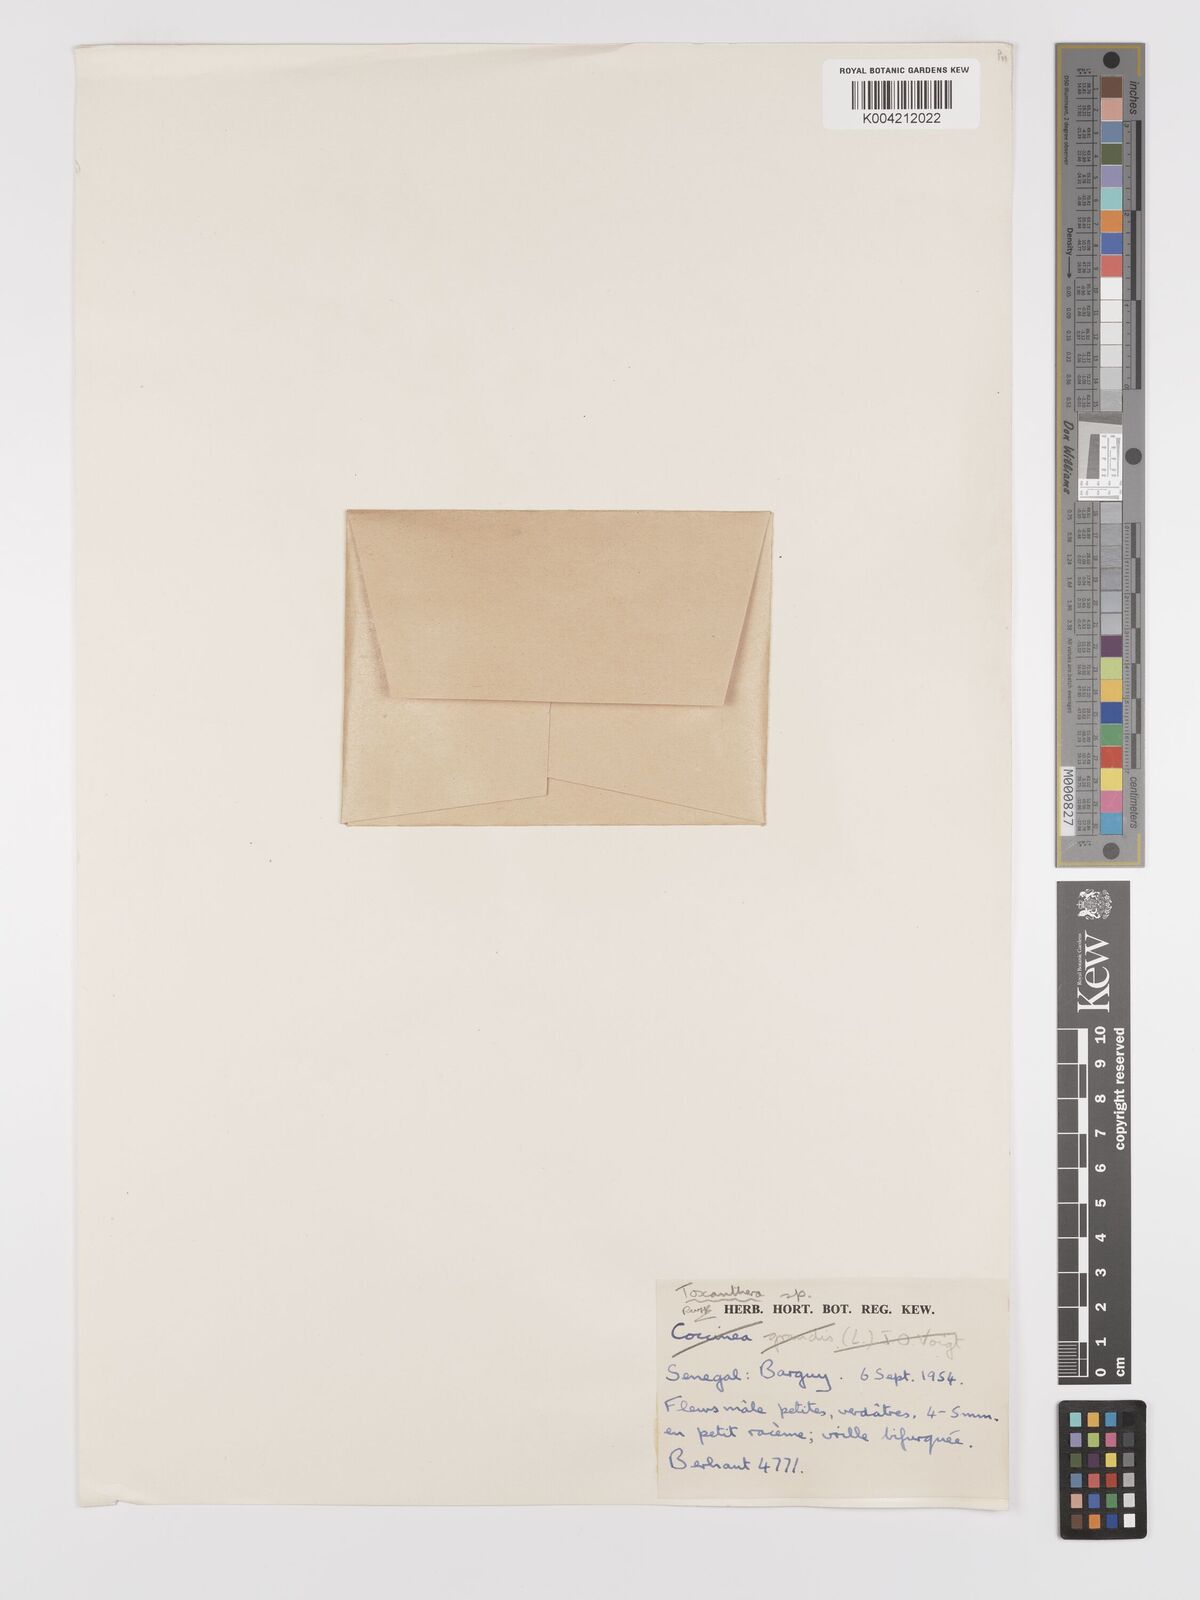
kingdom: Plantae
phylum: Tracheophyta
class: Magnoliopsida
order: Cucurbitales
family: Cucurbitaceae
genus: Kedrostis
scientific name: Kedrostis hirtella
